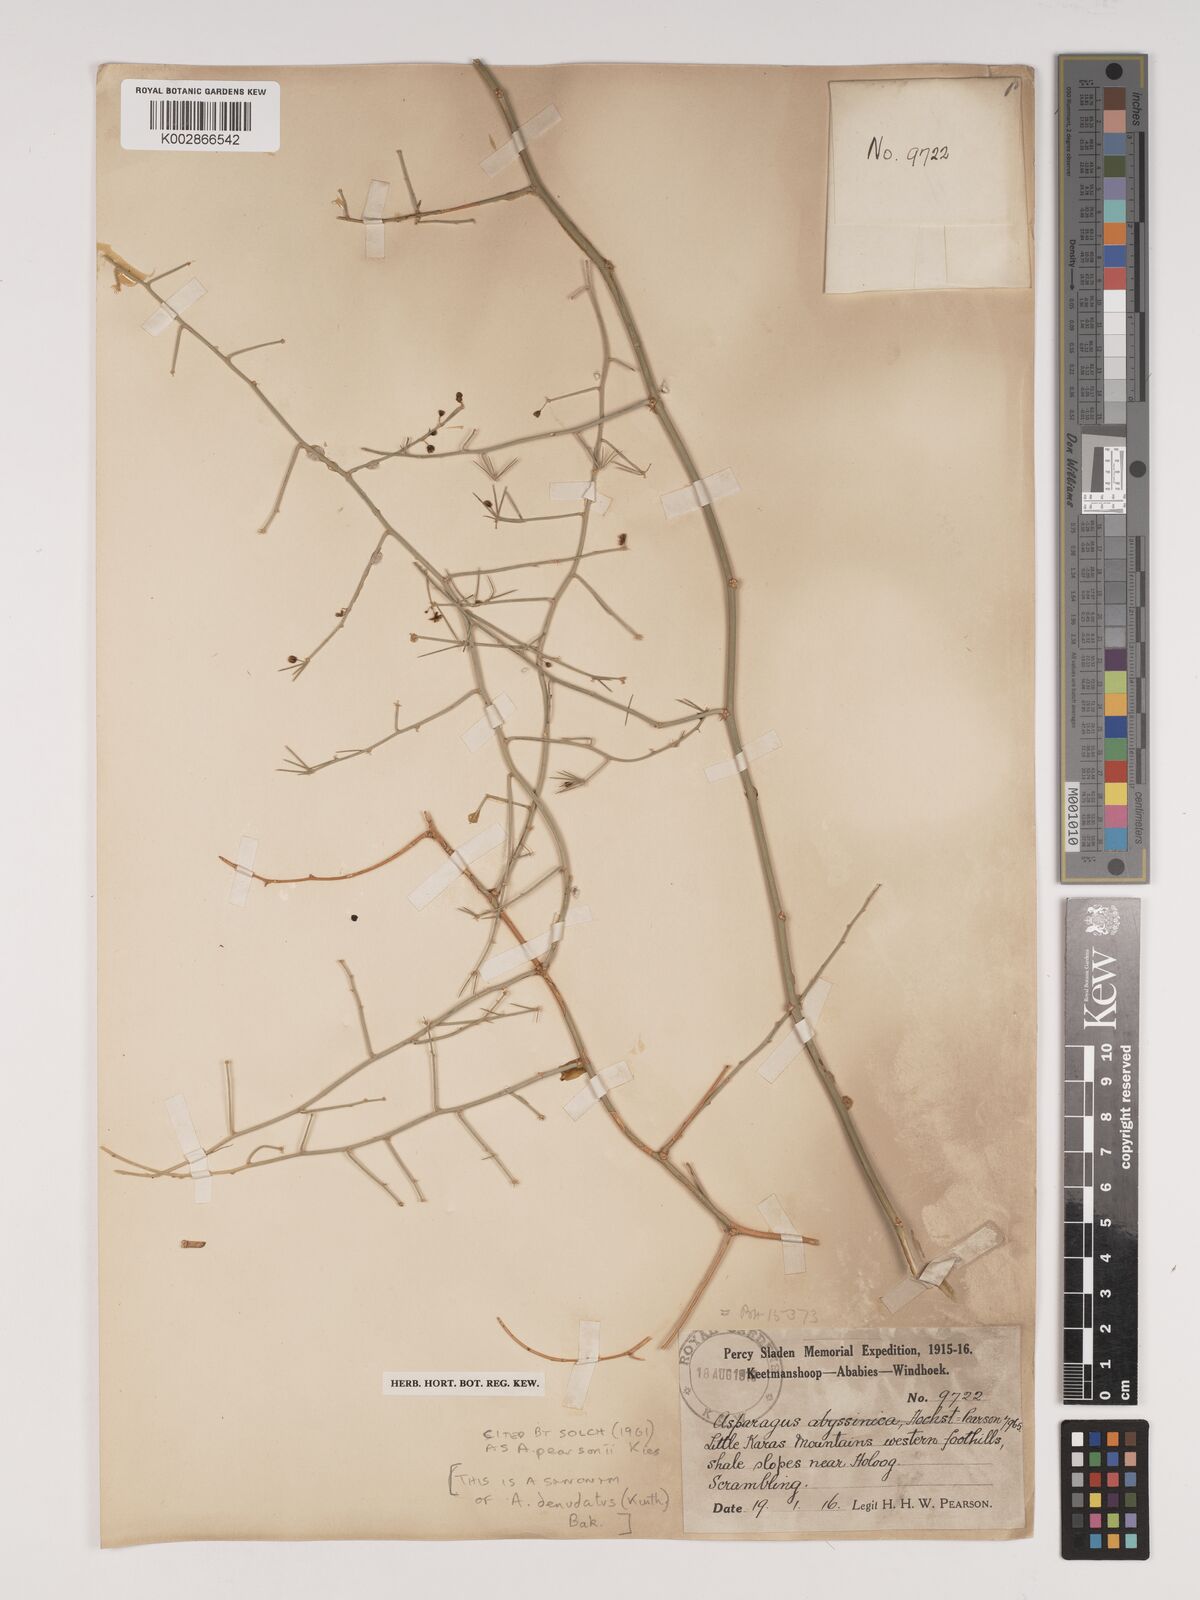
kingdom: Plantae
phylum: Tracheophyta
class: Liliopsida
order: Asparagales
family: Asparagaceae
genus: Asparagus
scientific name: Asparagus denudatus
